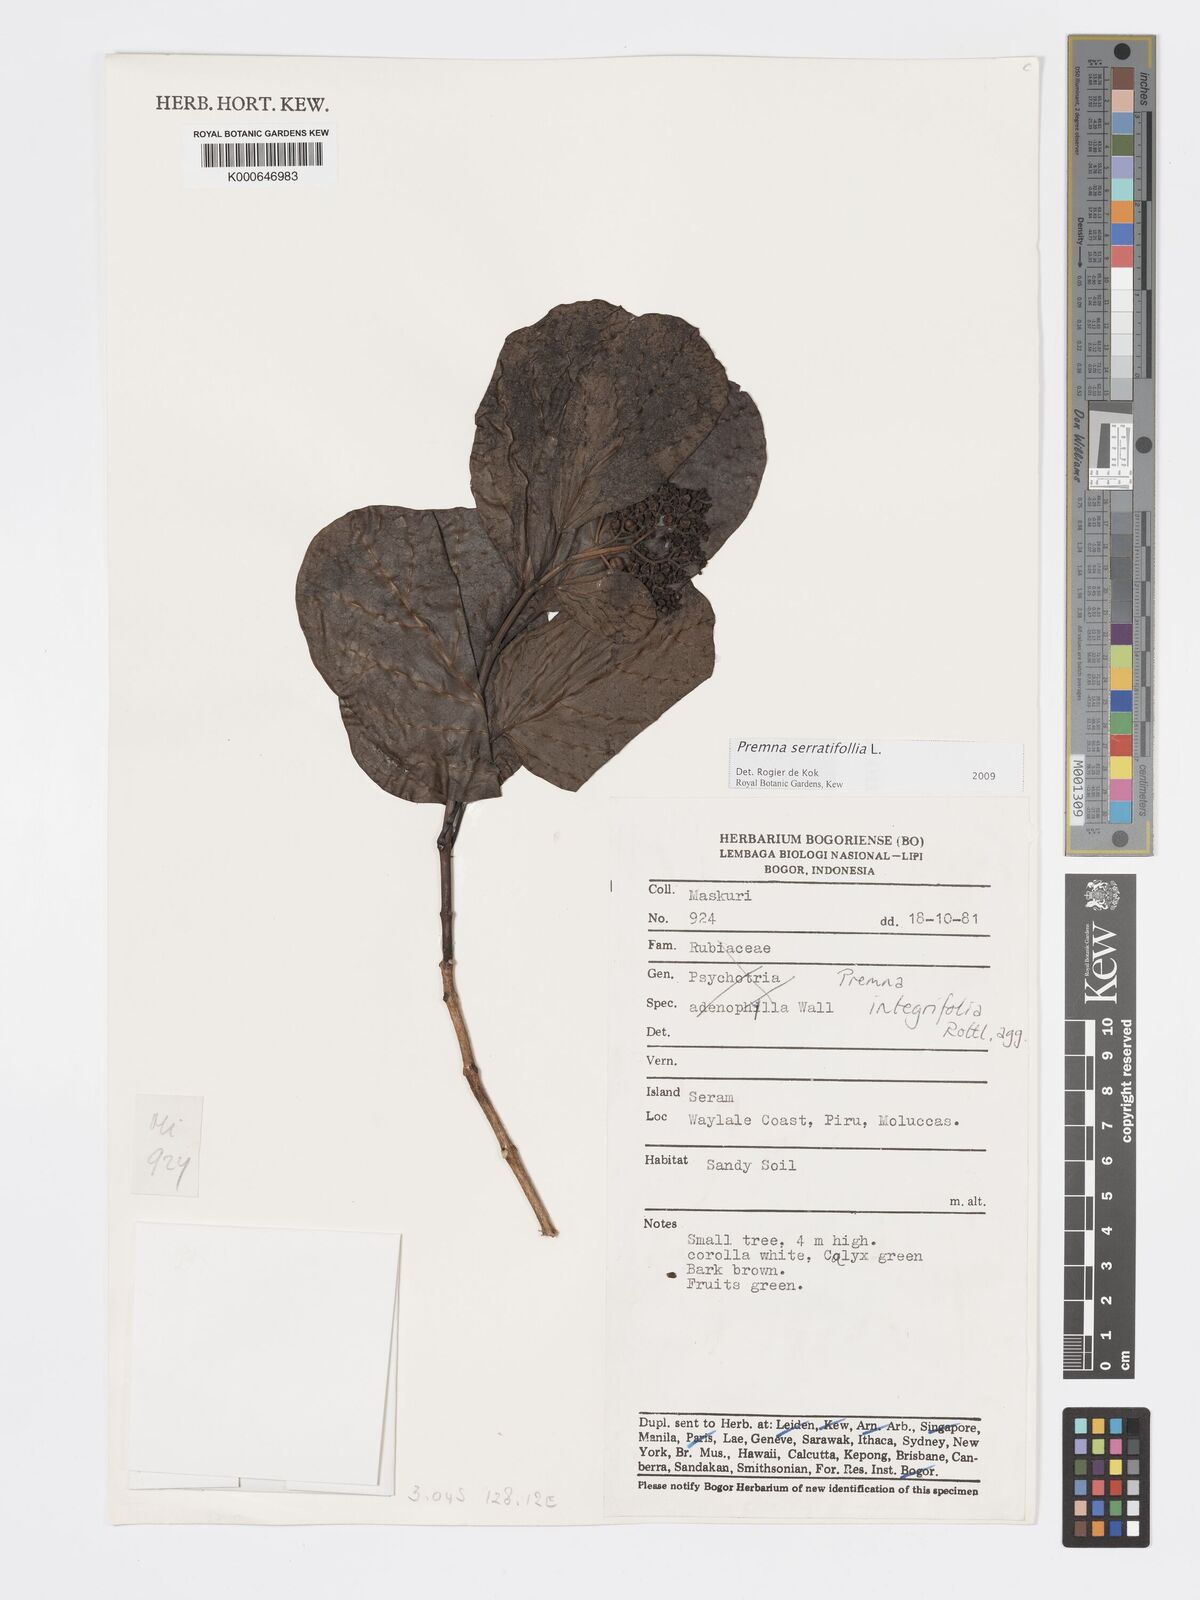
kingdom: Plantae
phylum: Tracheophyta
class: Magnoliopsida
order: Lamiales
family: Lamiaceae
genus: Premna
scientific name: Premna serratifolia
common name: Bastard guelder
